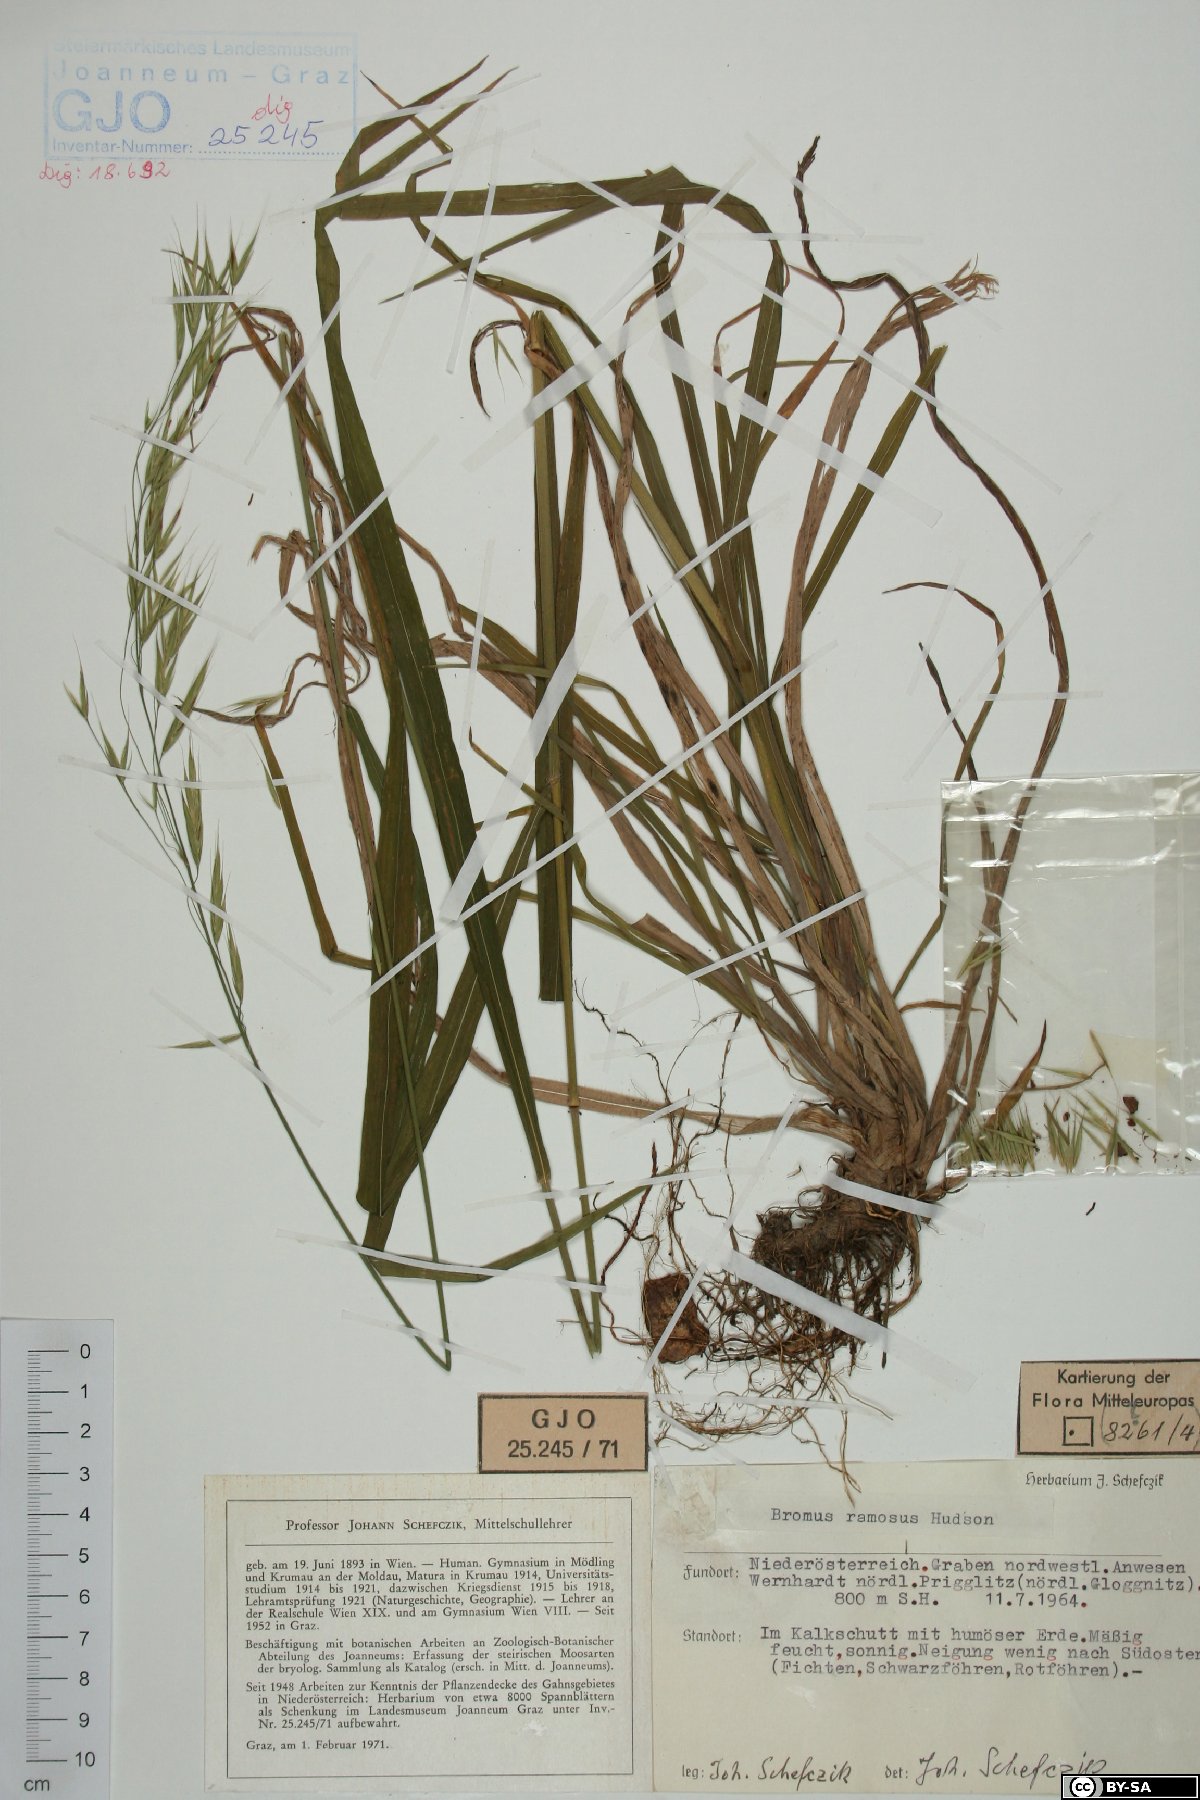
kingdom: Plantae
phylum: Tracheophyta
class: Liliopsida
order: Poales
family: Poaceae
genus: Bromus
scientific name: Bromus ramosus
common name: Hairy brome
